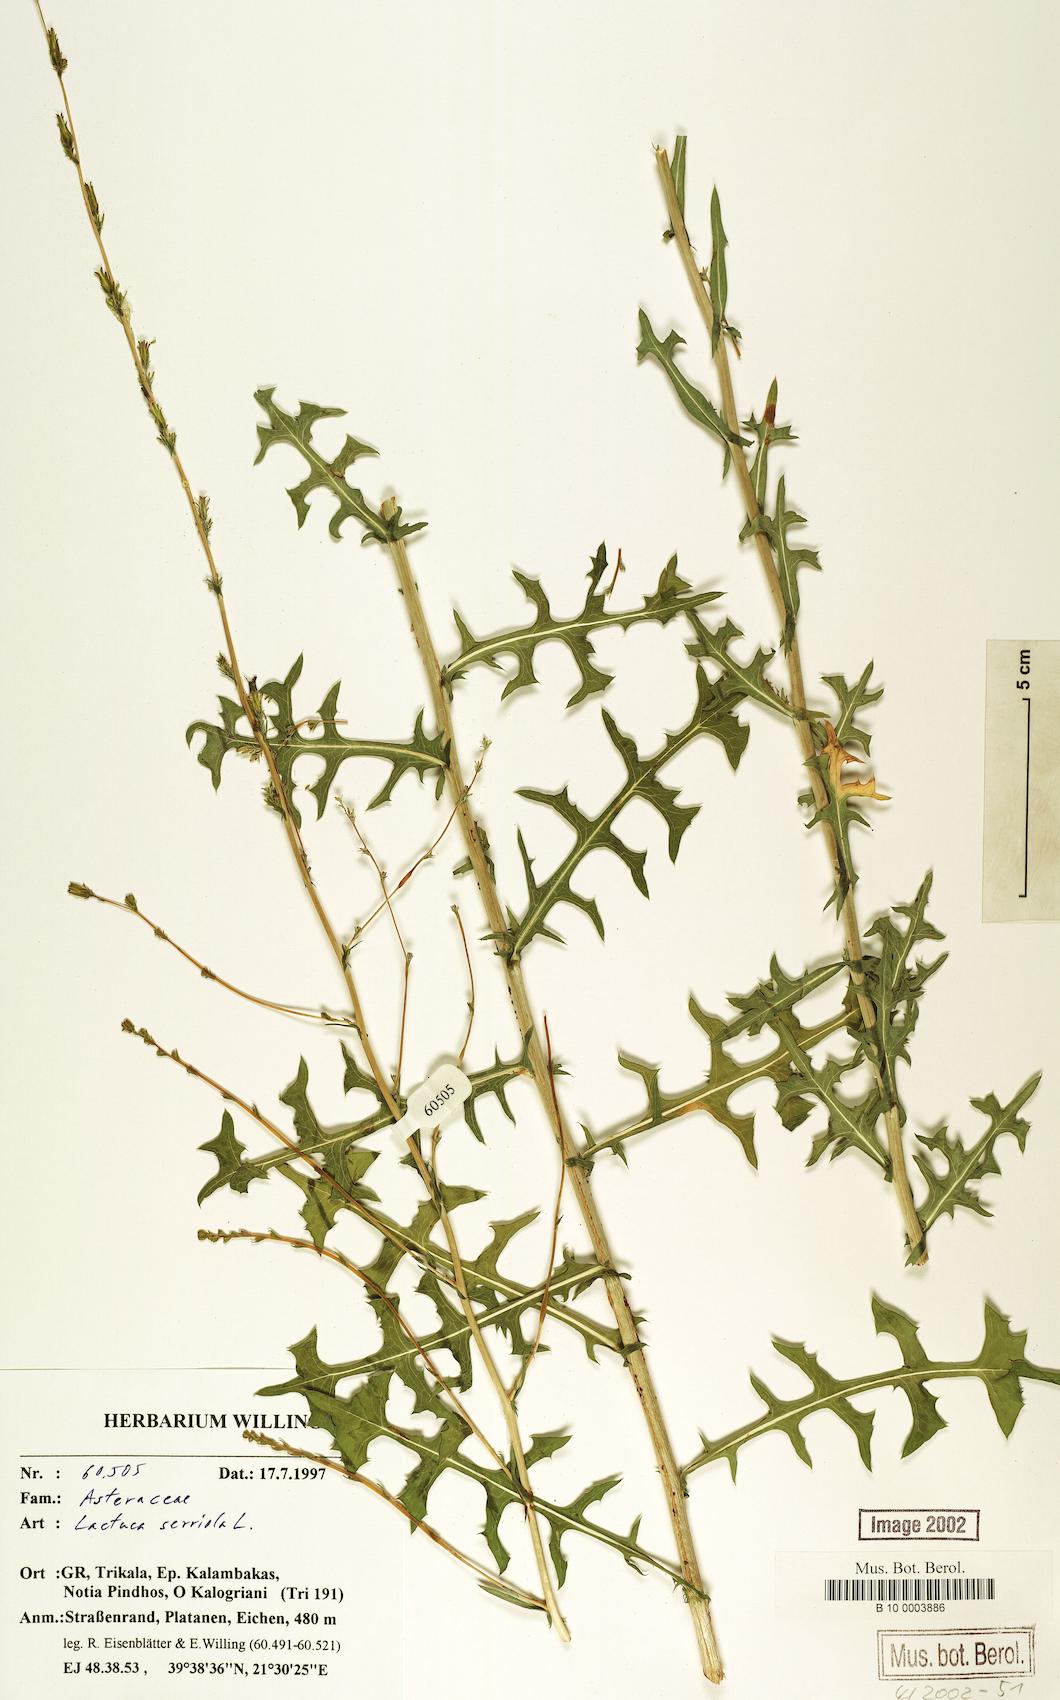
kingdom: Plantae
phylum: Tracheophyta
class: Magnoliopsida
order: Asterales
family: Asteraceae
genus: Lactuca
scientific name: Lactuca serriola
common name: Prickly lettuce
